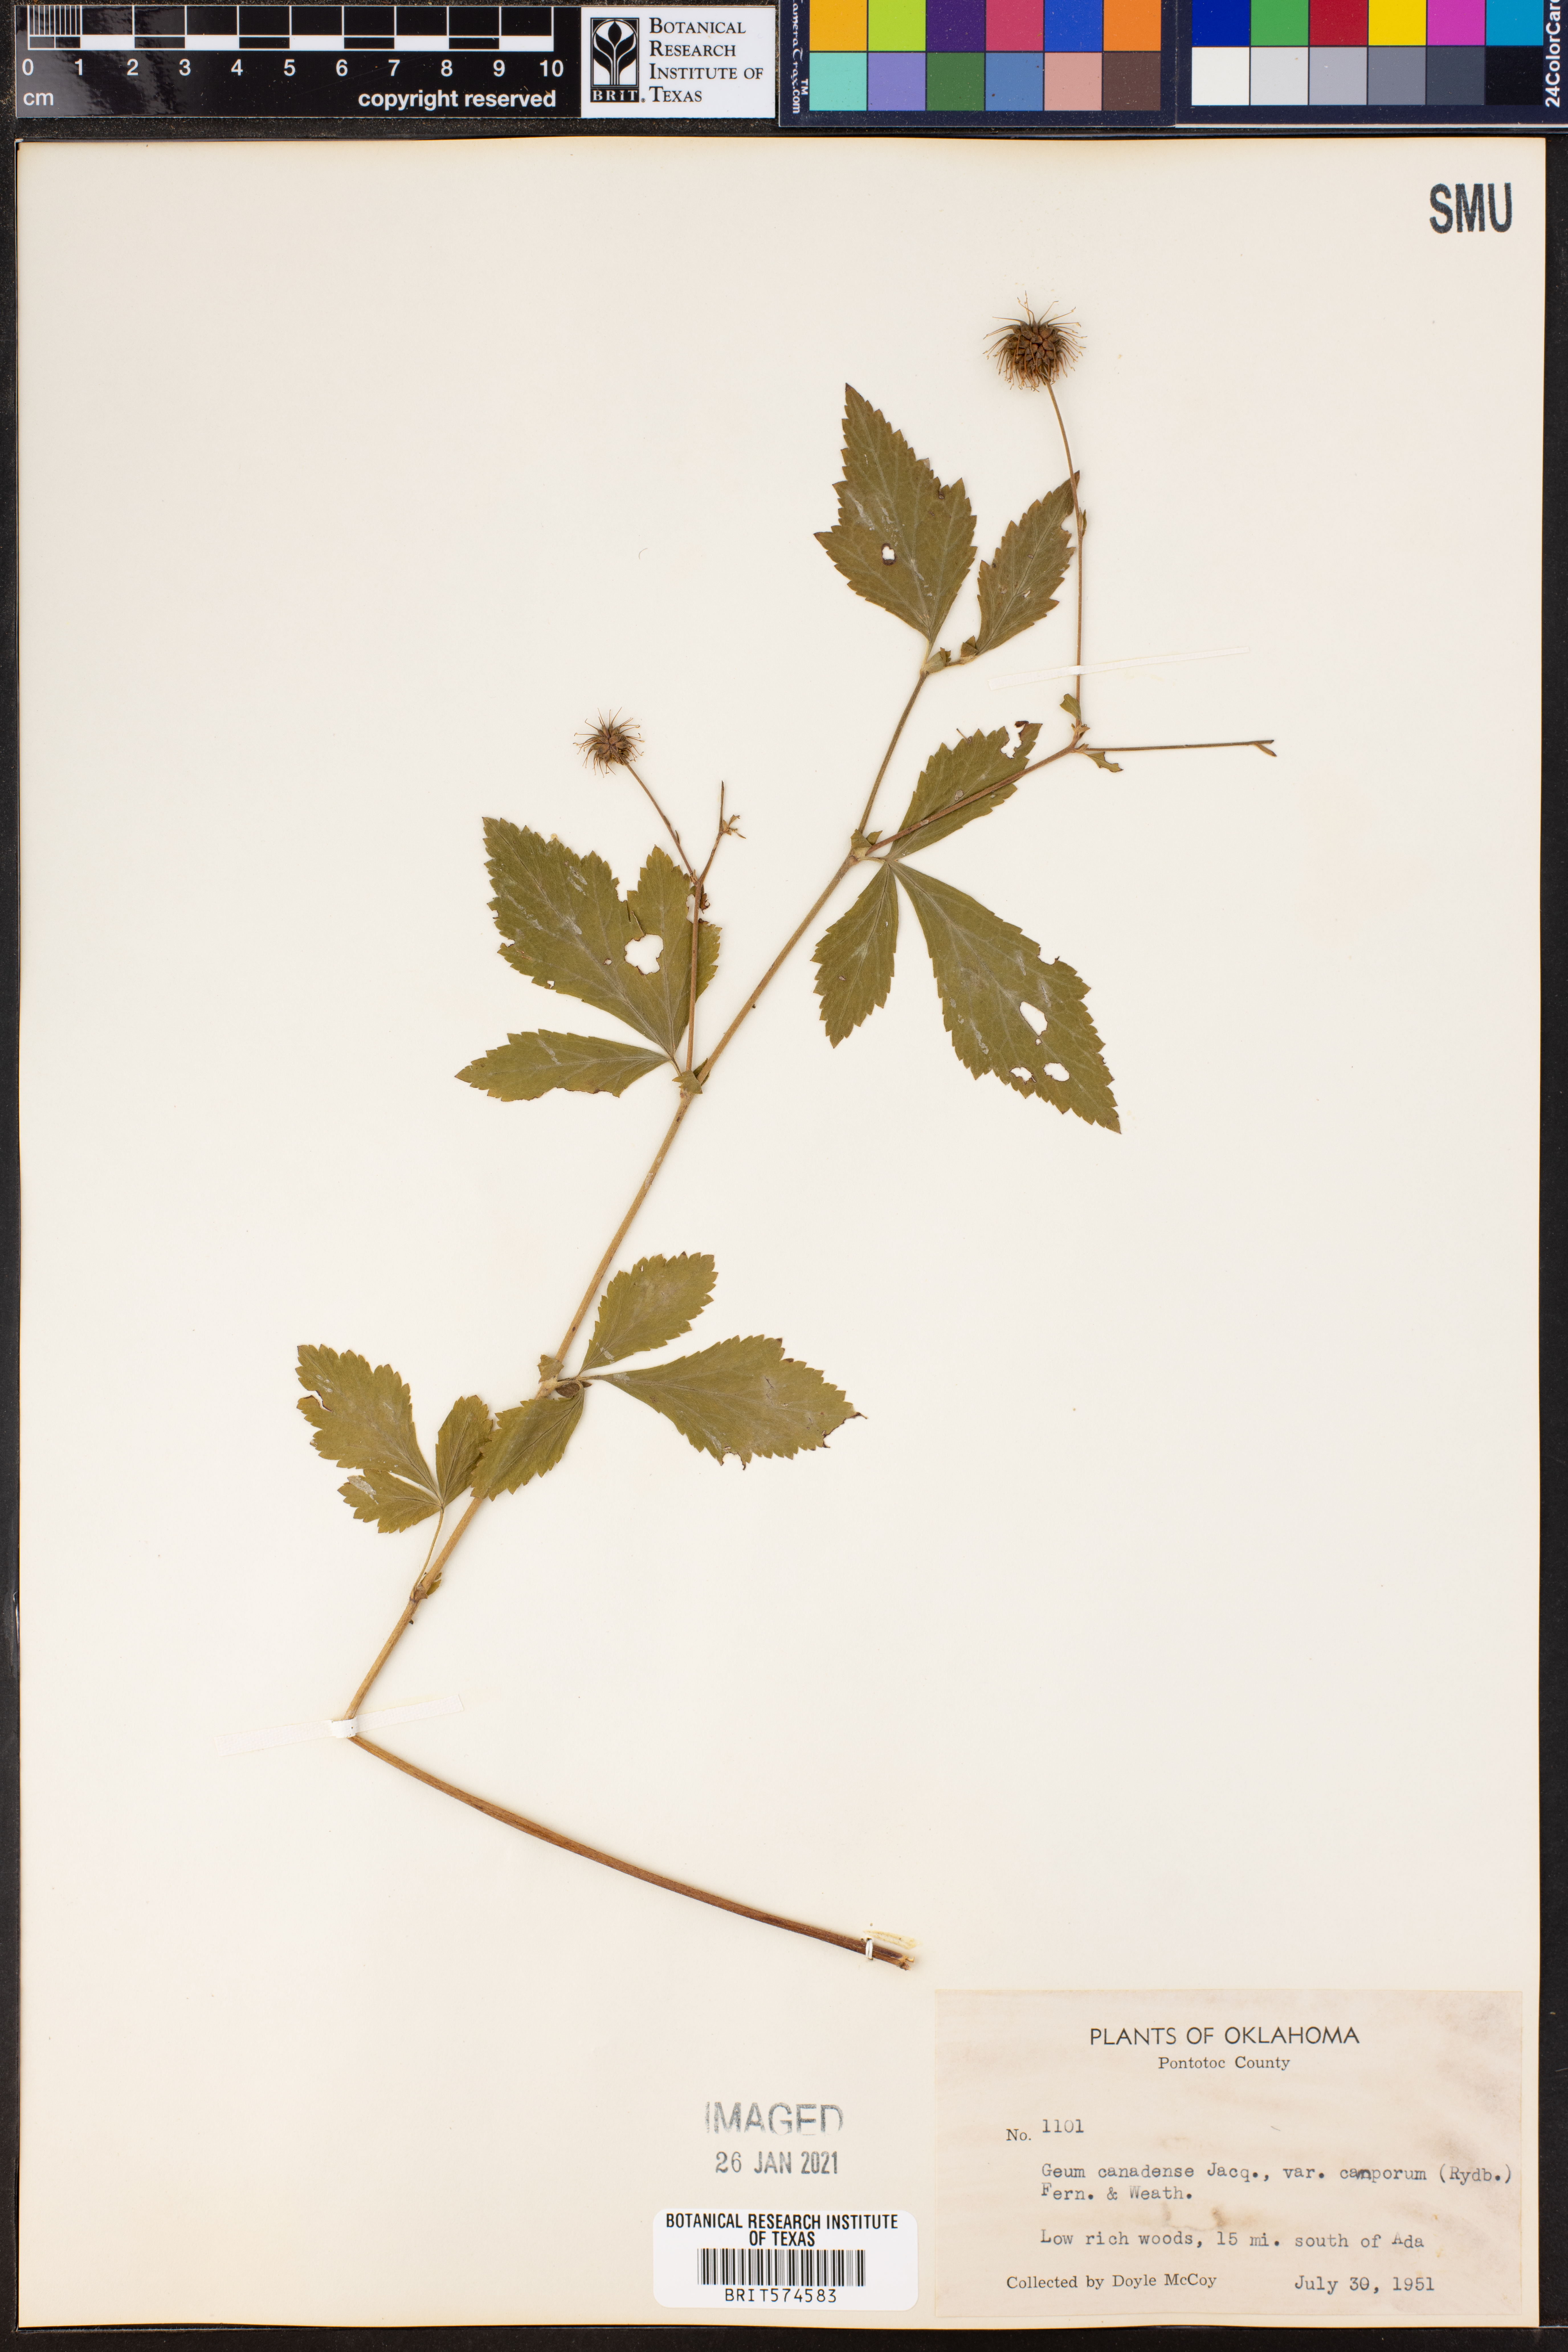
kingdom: Plantae
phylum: Tracheophyta
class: Magnoliopsida
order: Rosales
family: Rosaceae
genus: Geum
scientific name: Geum canadense
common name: White avens
